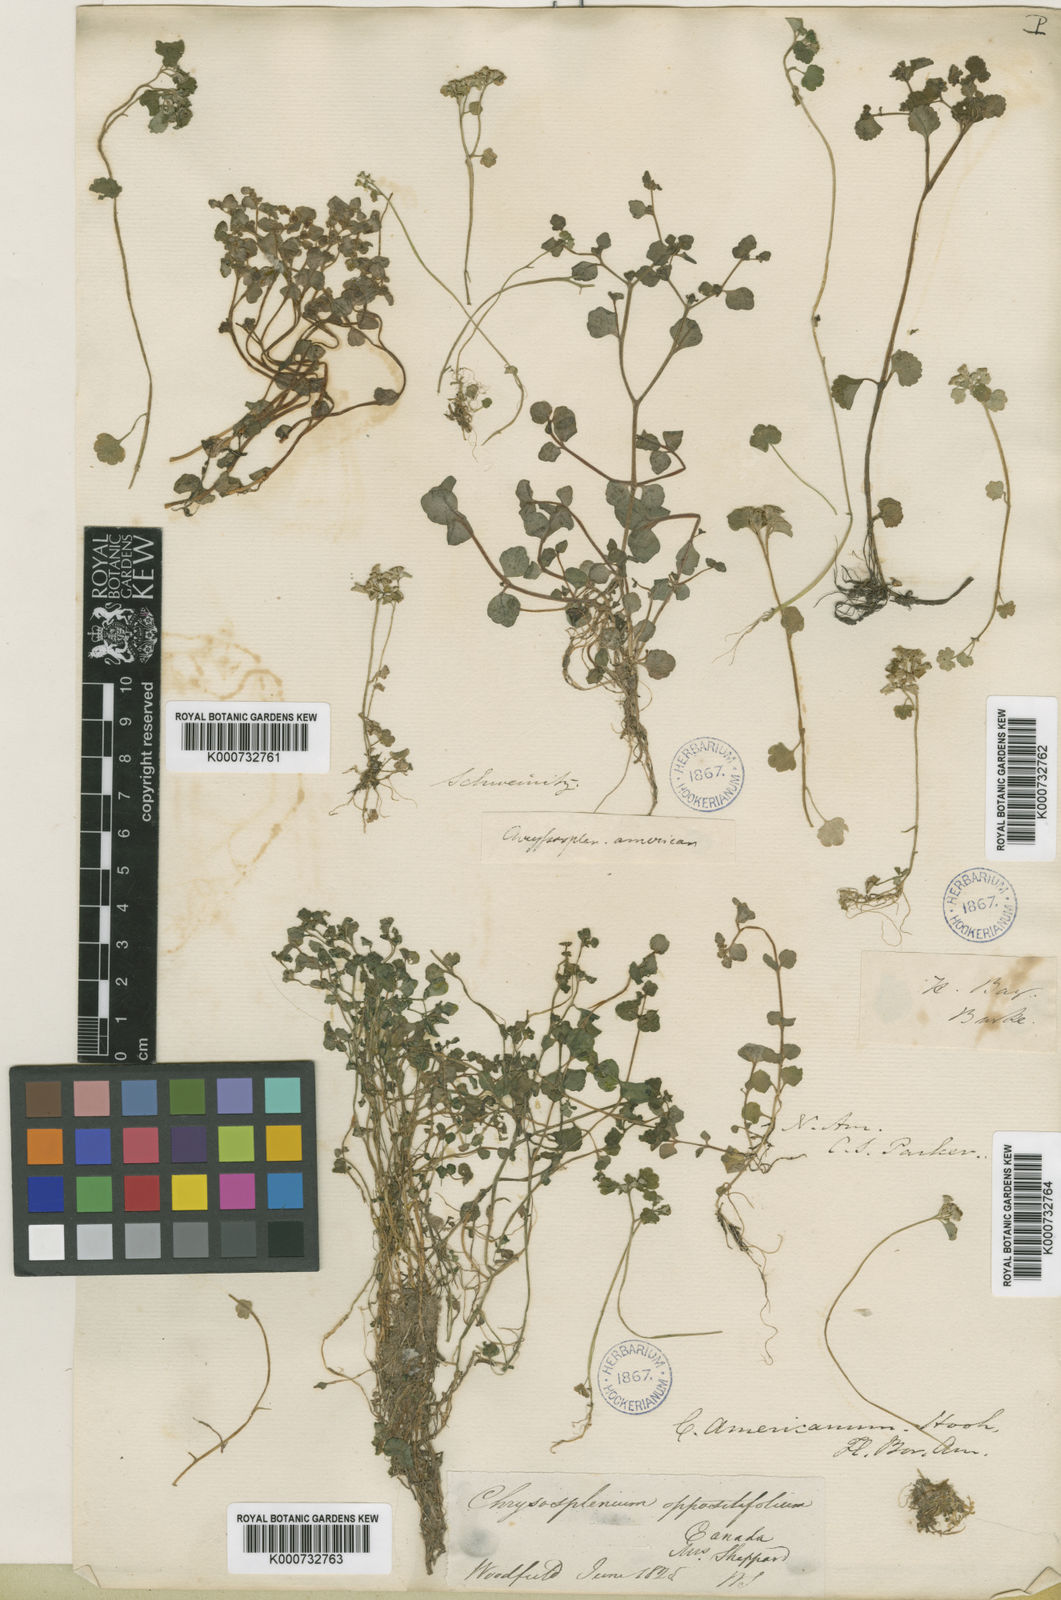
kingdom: Plantae
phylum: Tracheophyta
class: Magnoliopsida
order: Saxifragales
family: Saxifragaceae
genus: Chrysosplenium
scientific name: Chrysosplenium americanum
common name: American golden-saxifrage
